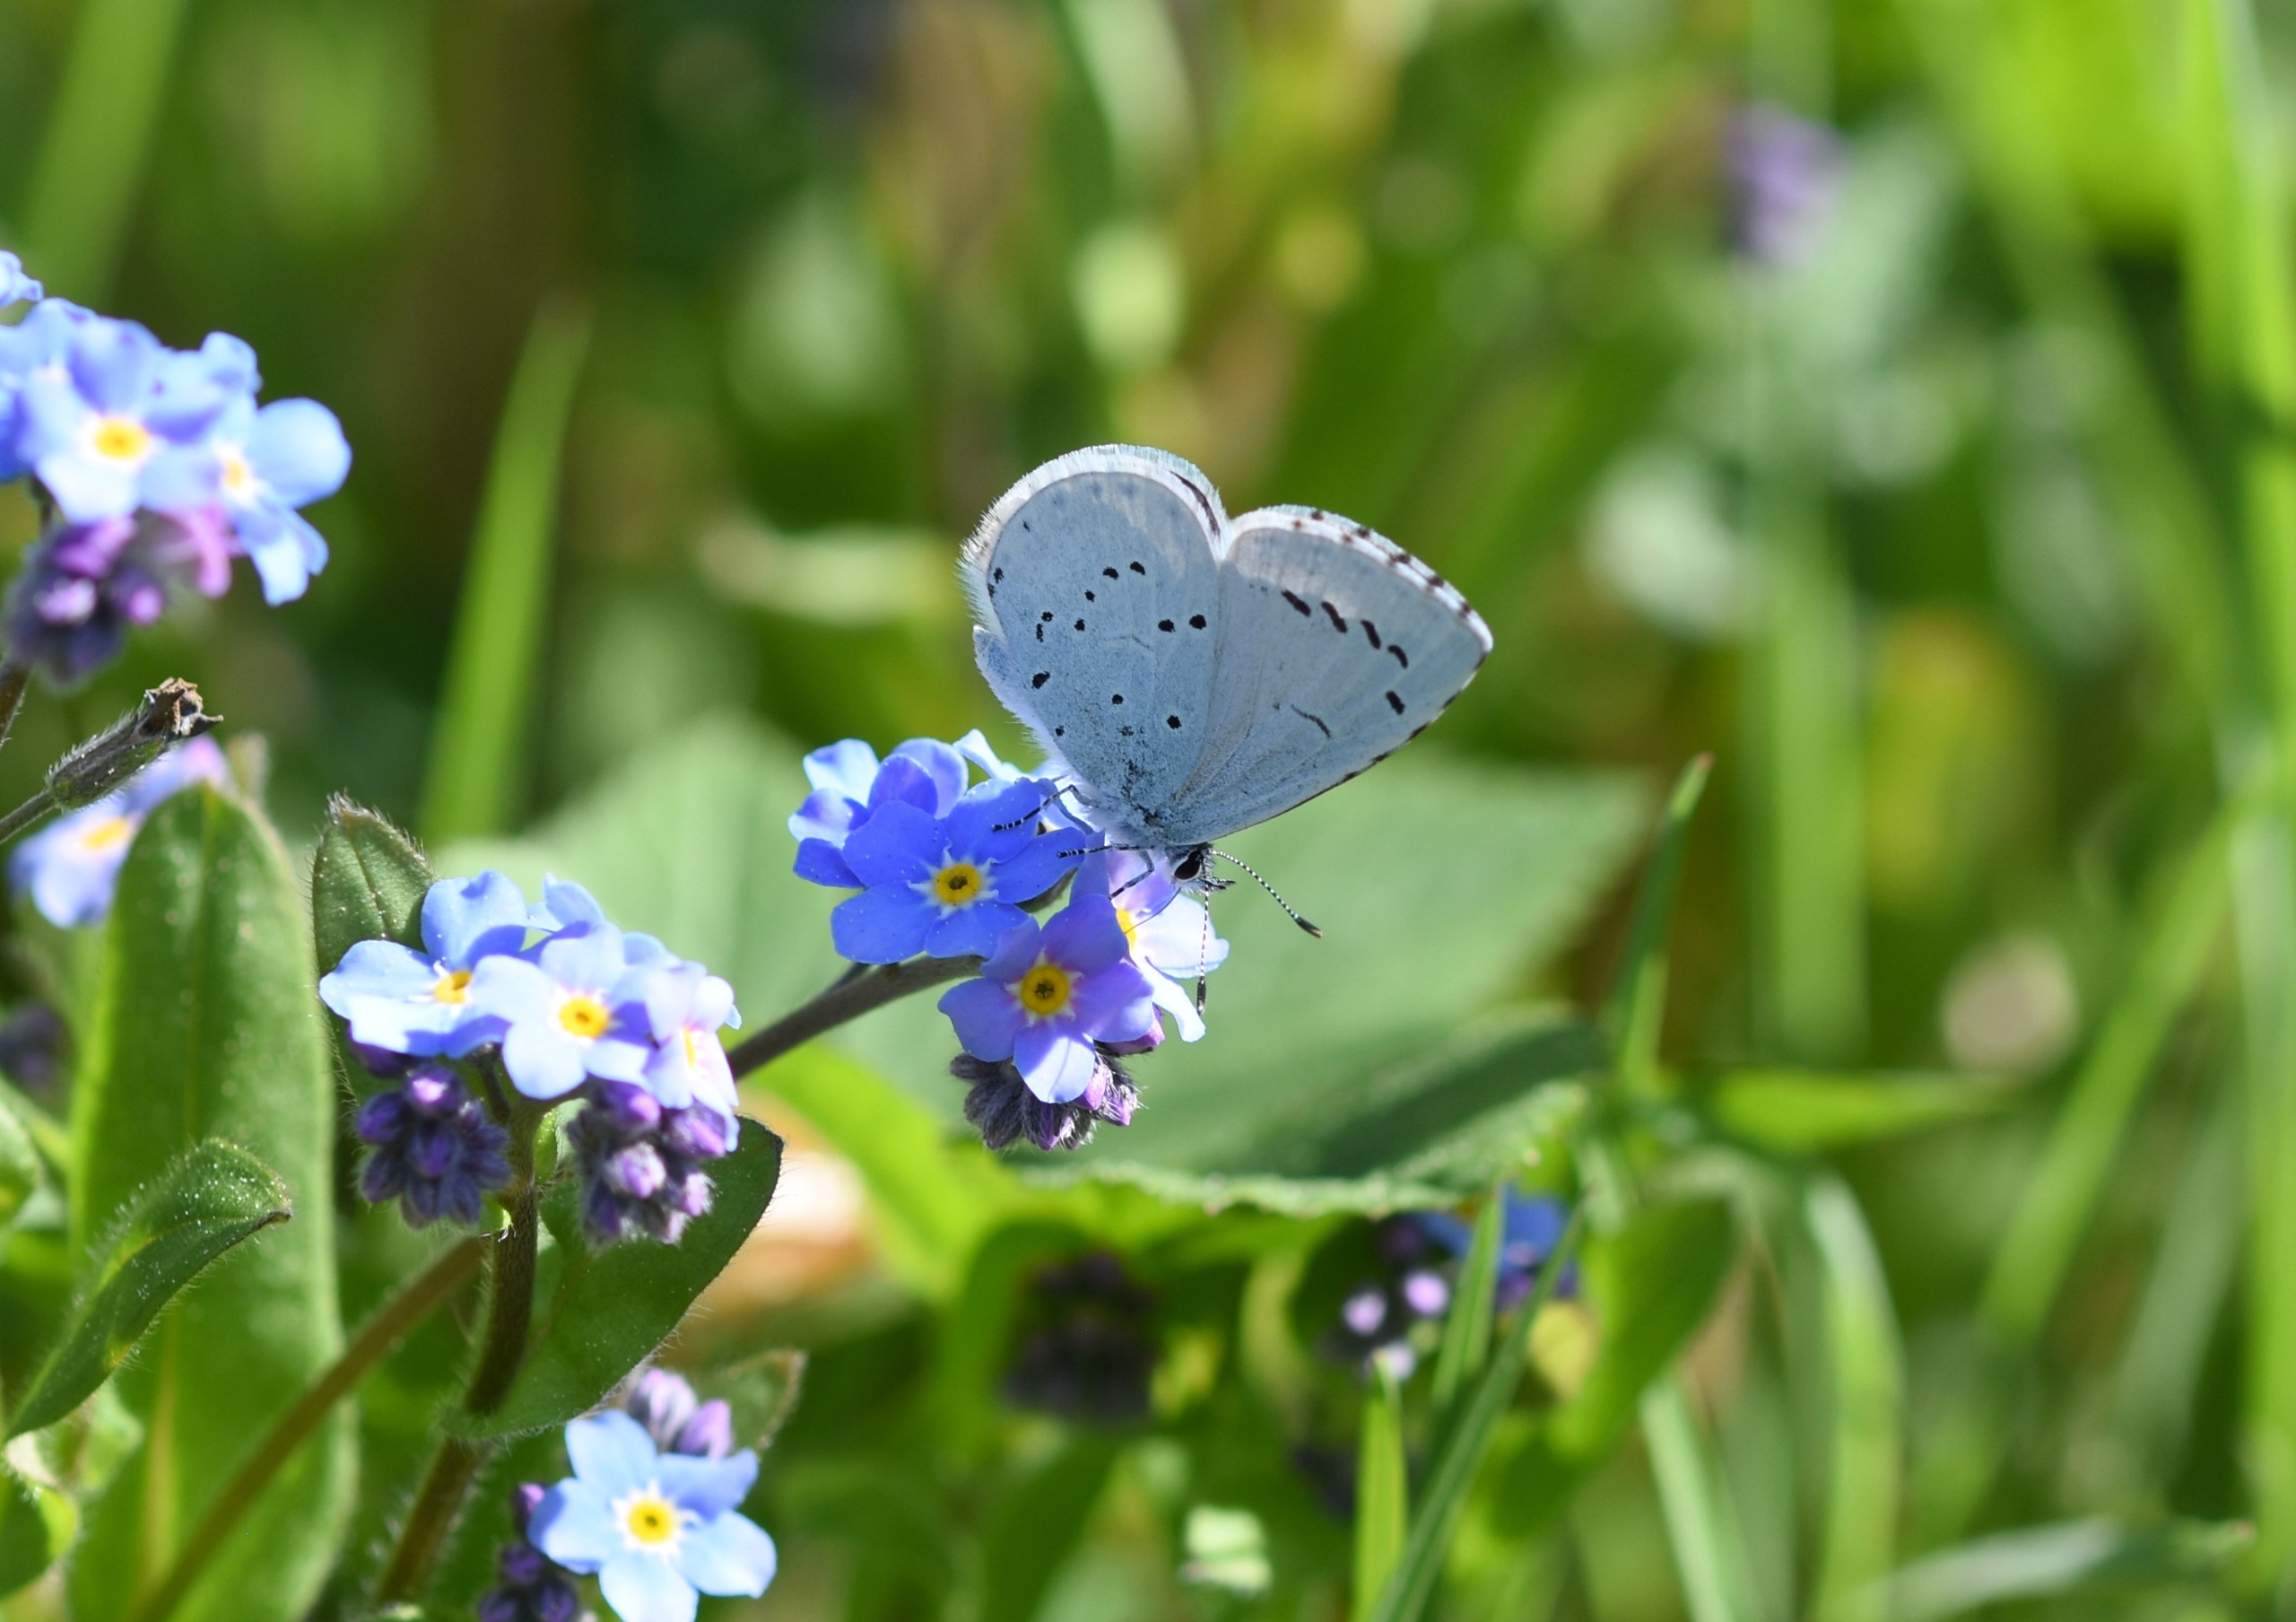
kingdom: Animalia
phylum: Arthropoda
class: Insecta
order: Lepidoptera
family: Lycaenidae
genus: Celastrina
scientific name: Celastrina argiolus
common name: Skovblåfugl
